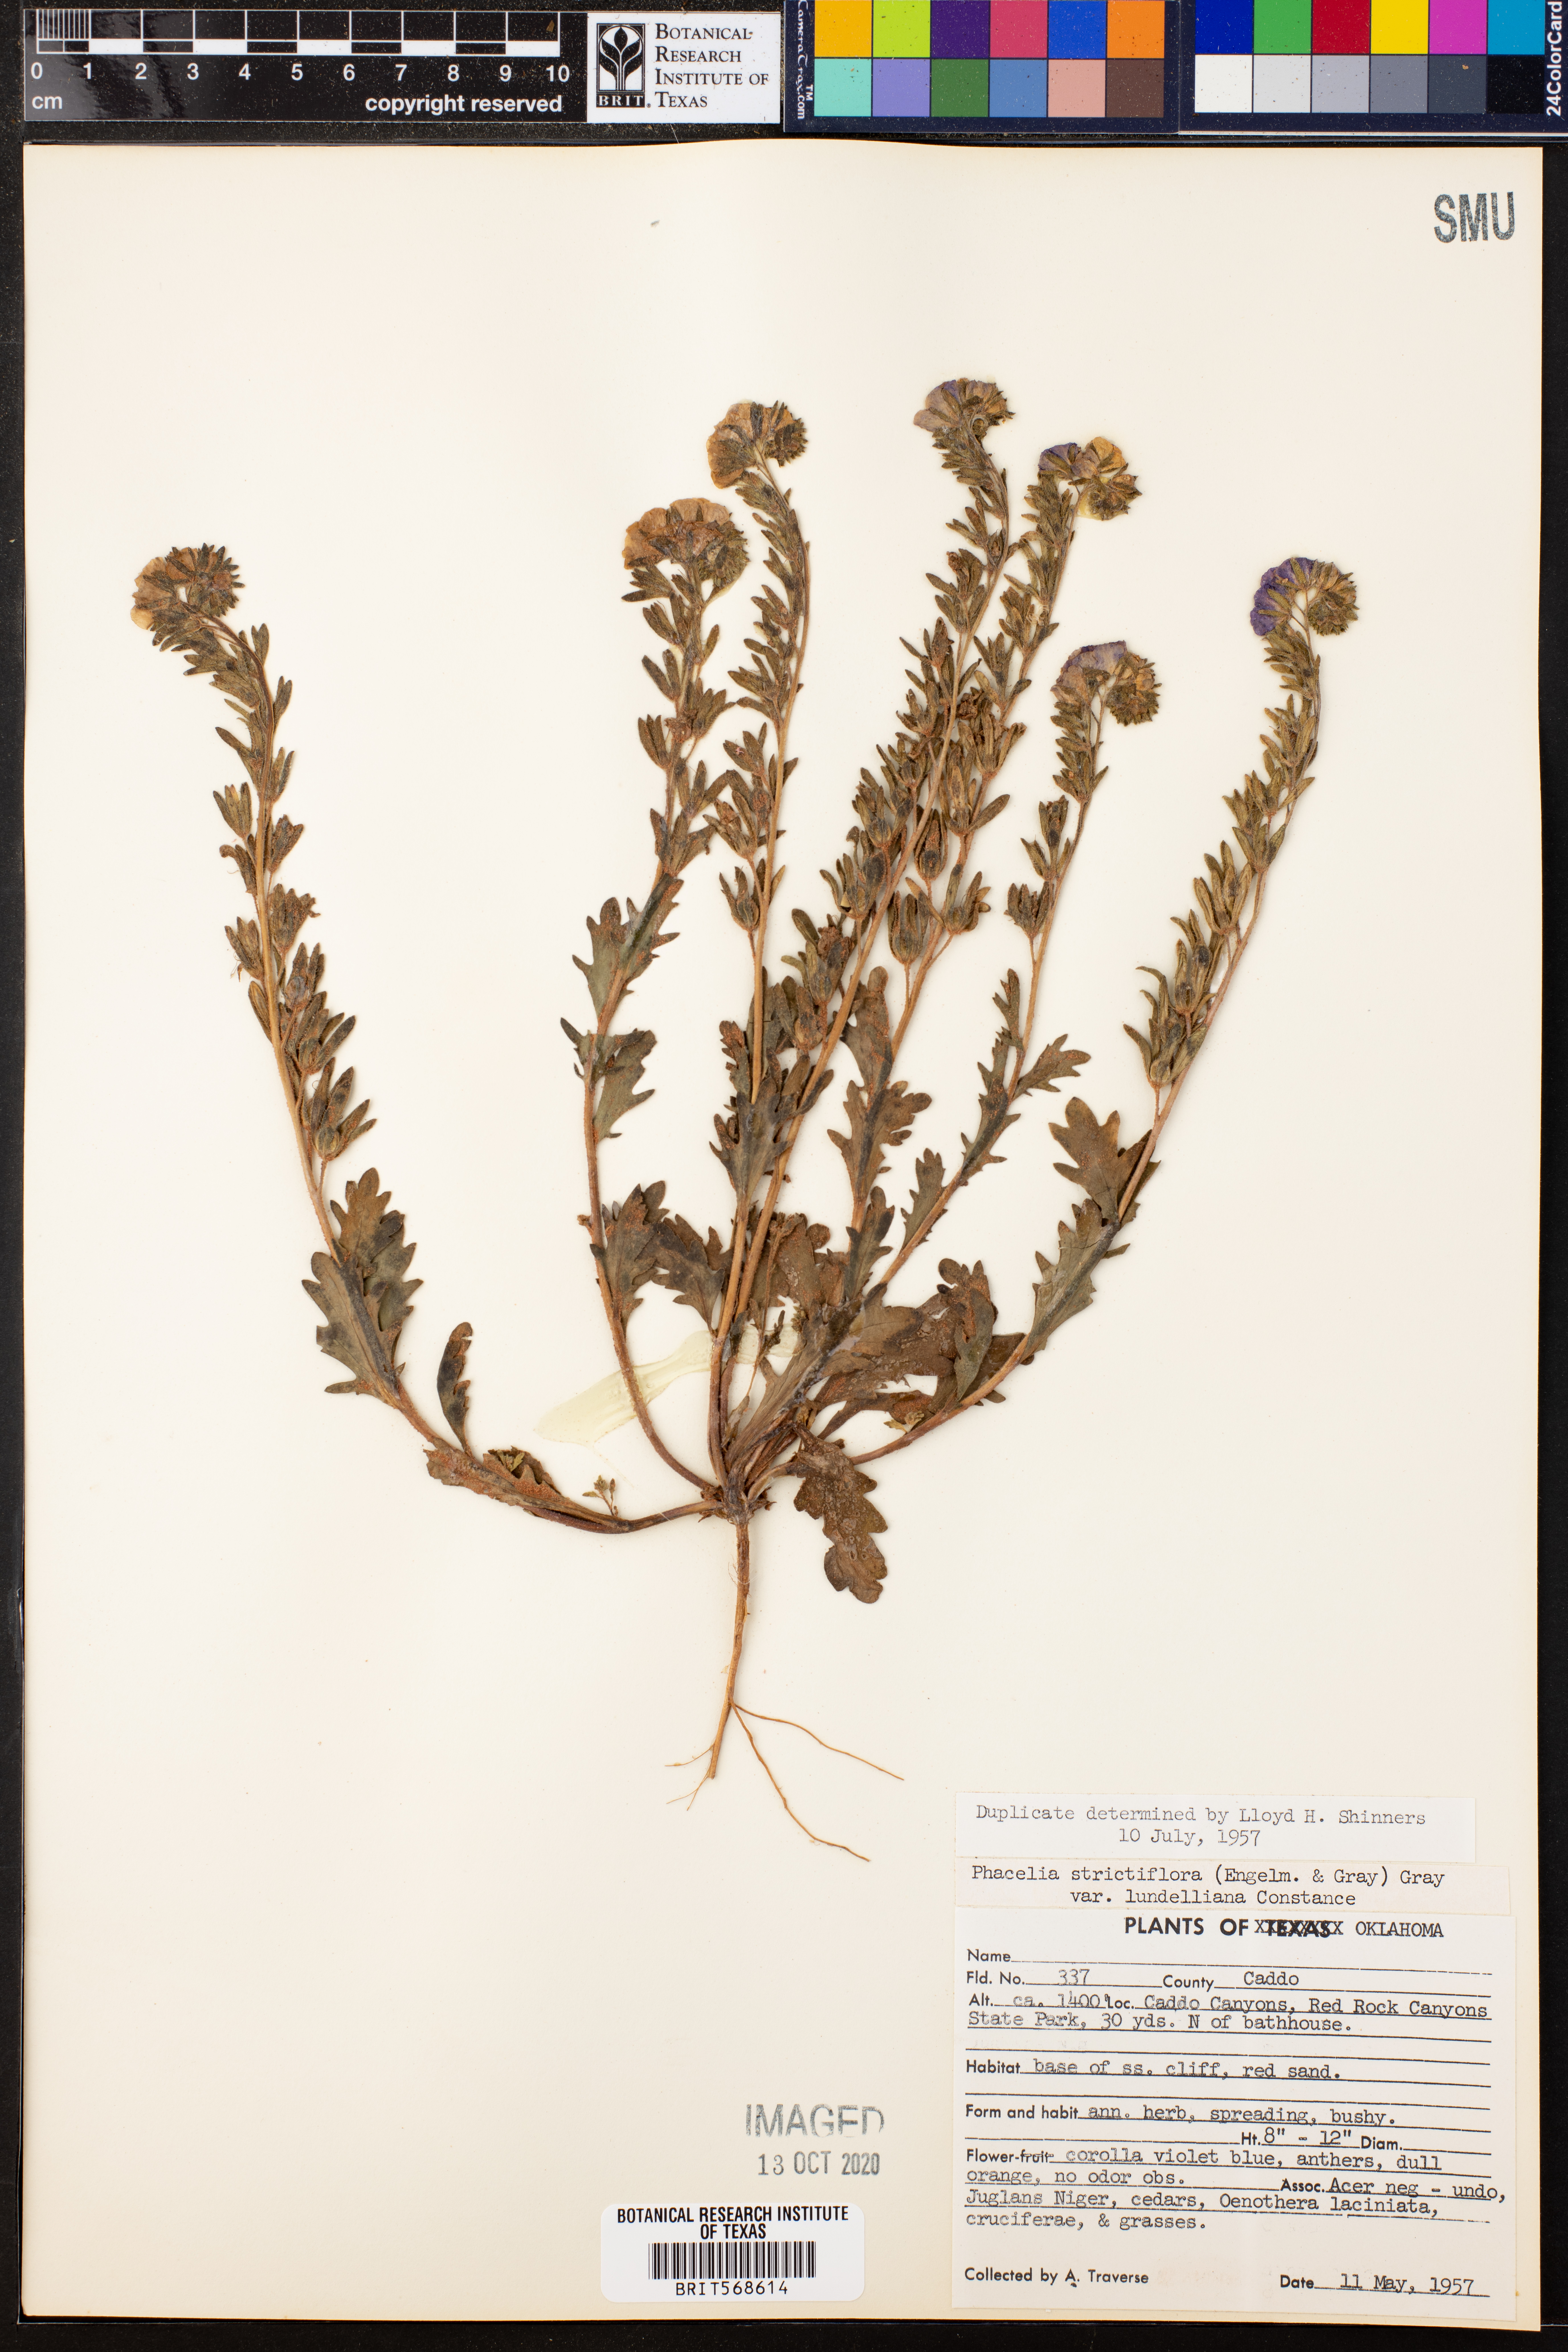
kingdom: Plantae
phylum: Tracheophyta
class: Magnoliopsida
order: Boraginales
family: Hydrophyllaceae
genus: Phacelia
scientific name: Phacelia strictiflora
